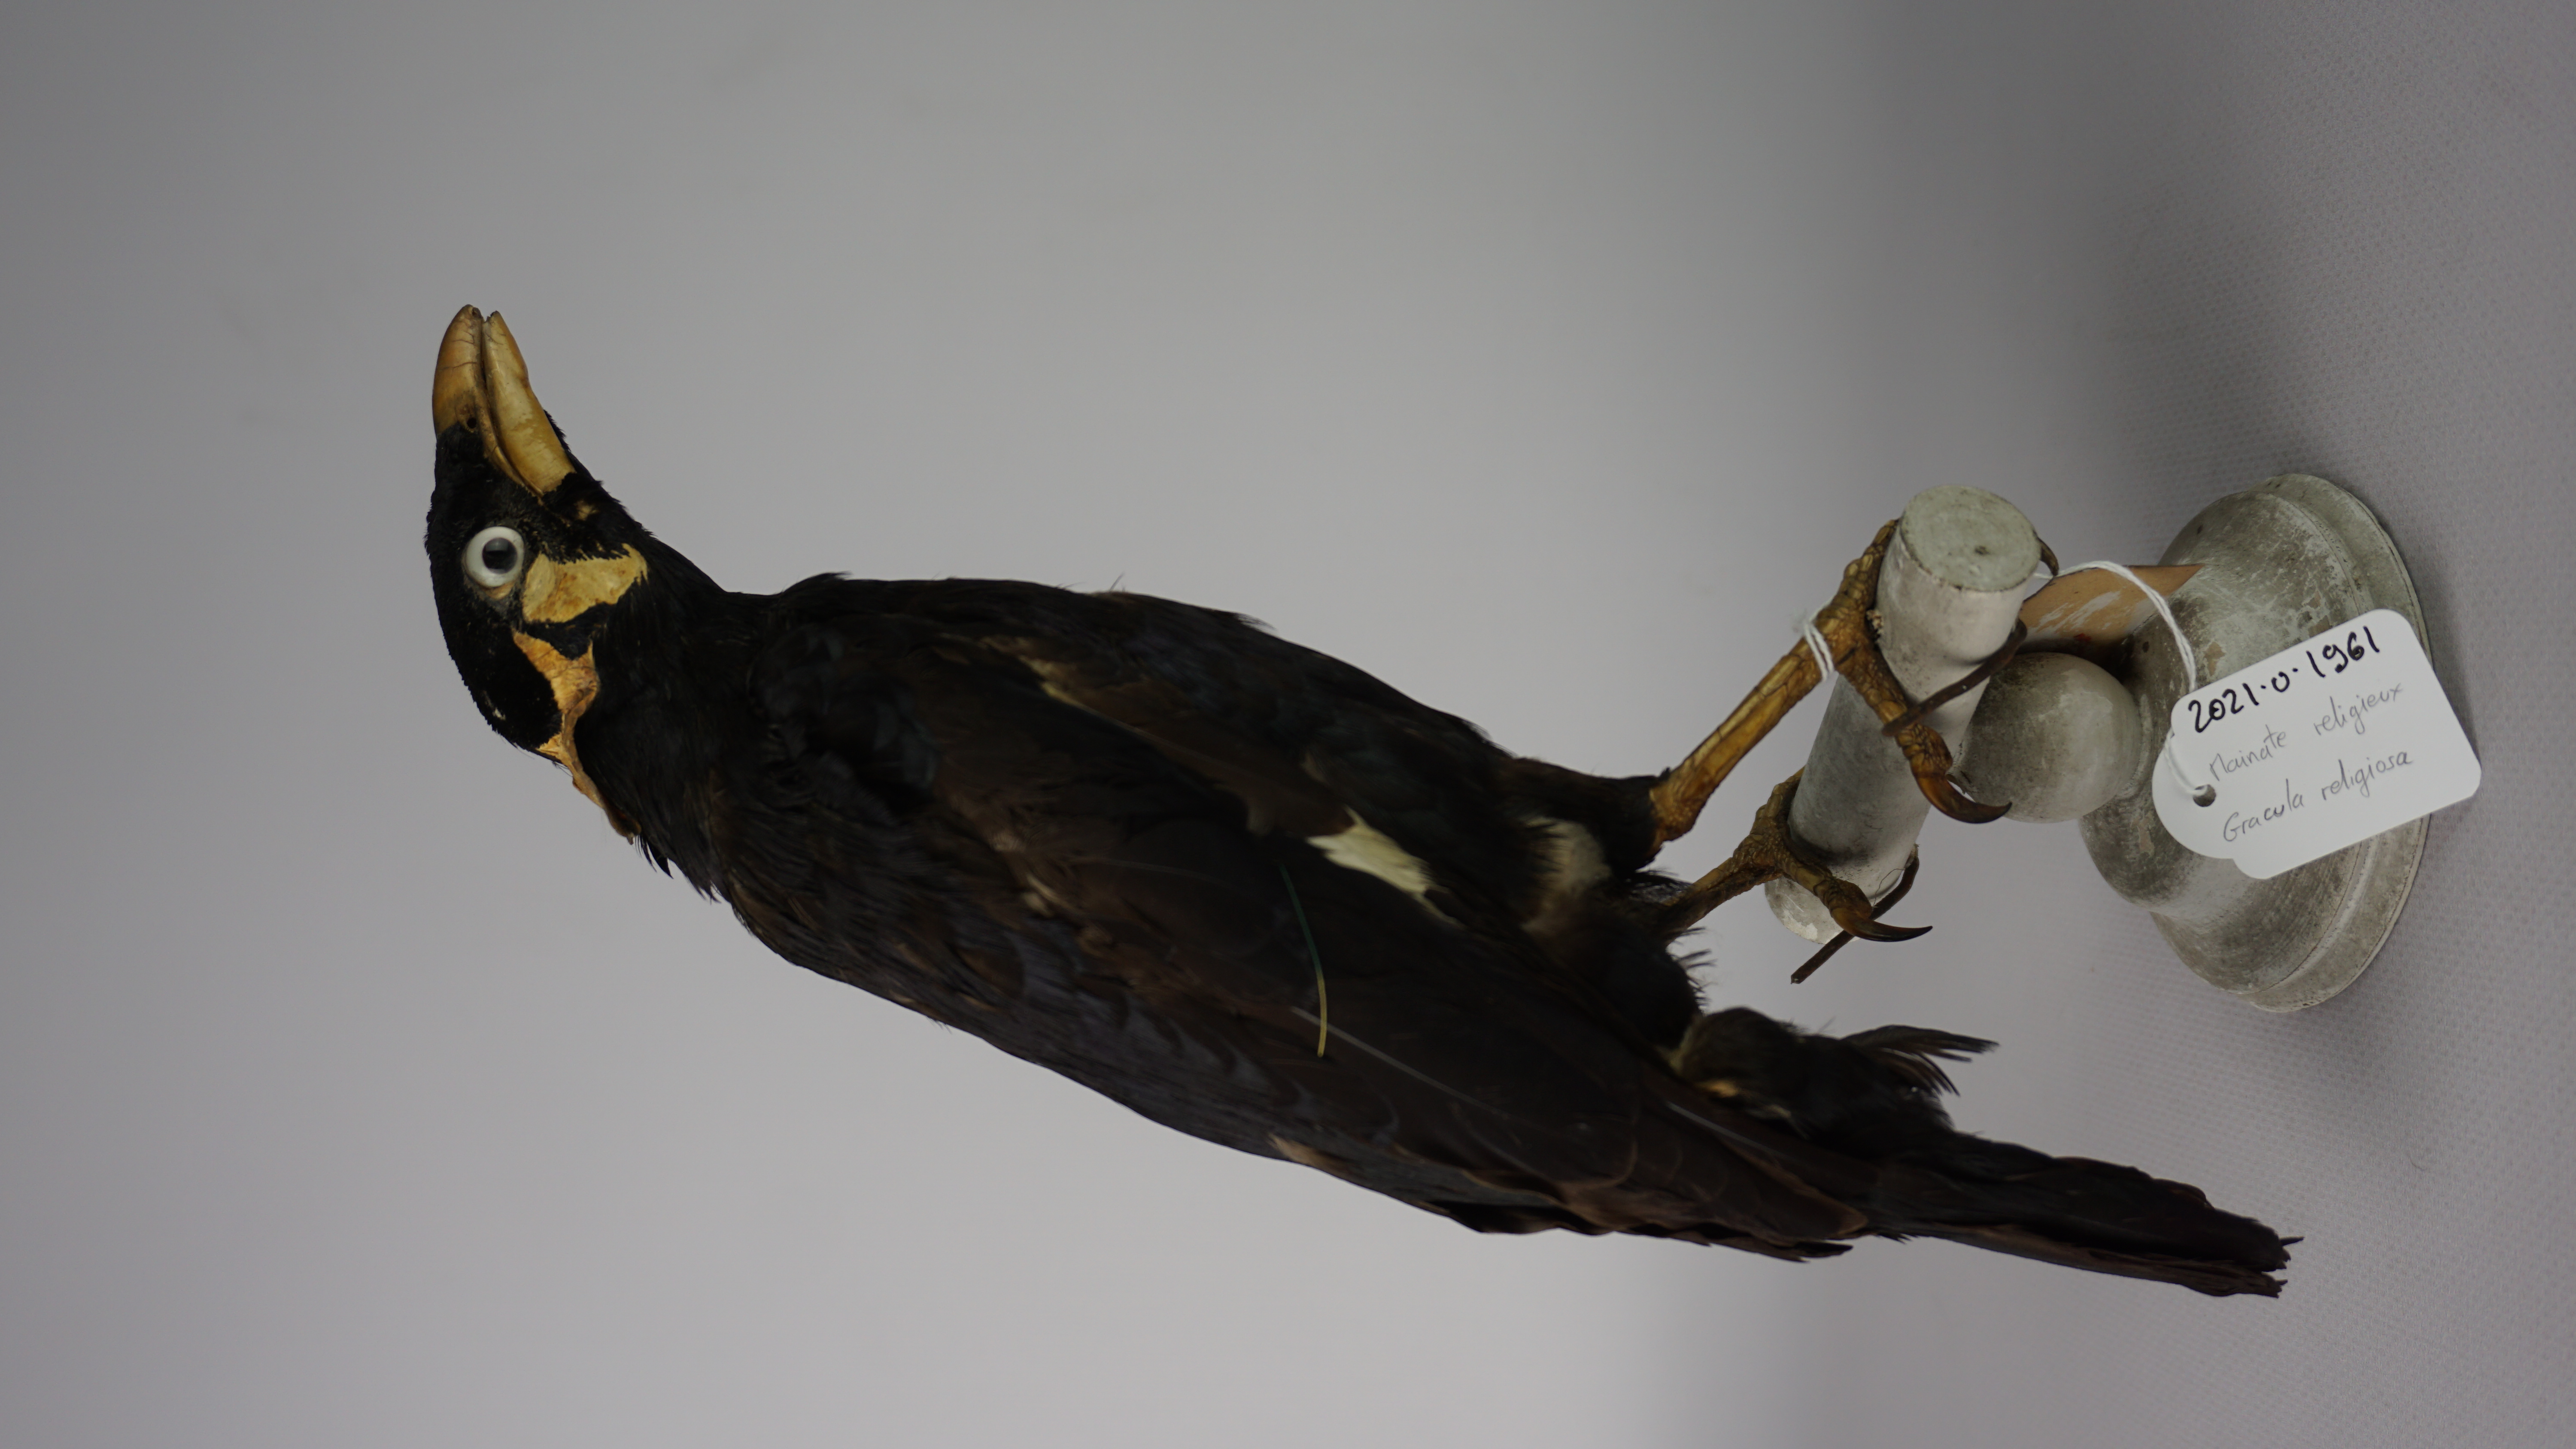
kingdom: Animalia
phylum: Chordata
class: Aves
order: Passeriformes
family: Sturnidae
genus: Gracula
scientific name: Gracula religiosa
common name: Common hill myna
